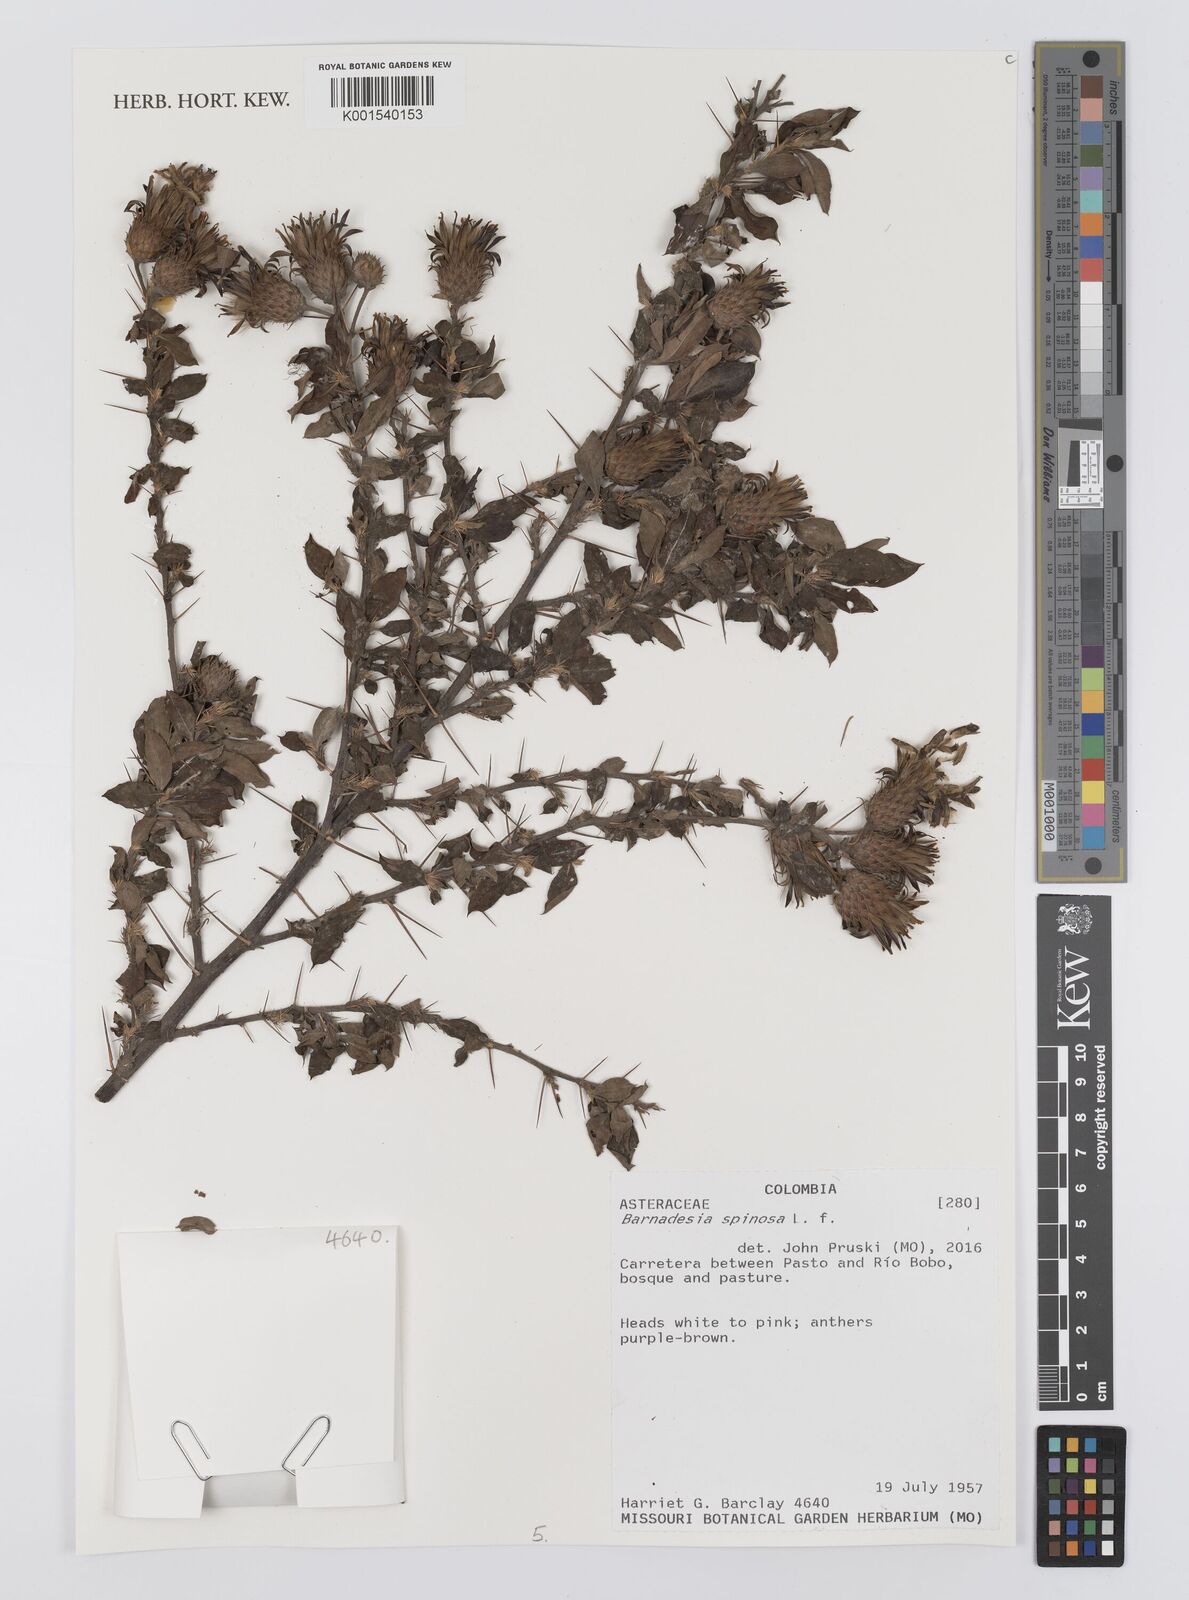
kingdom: Plantae
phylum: Tracheophyta
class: Magnoliopsida
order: Asterales
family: Asteraceae
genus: Barnadesia
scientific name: Barnadesia spinosa
